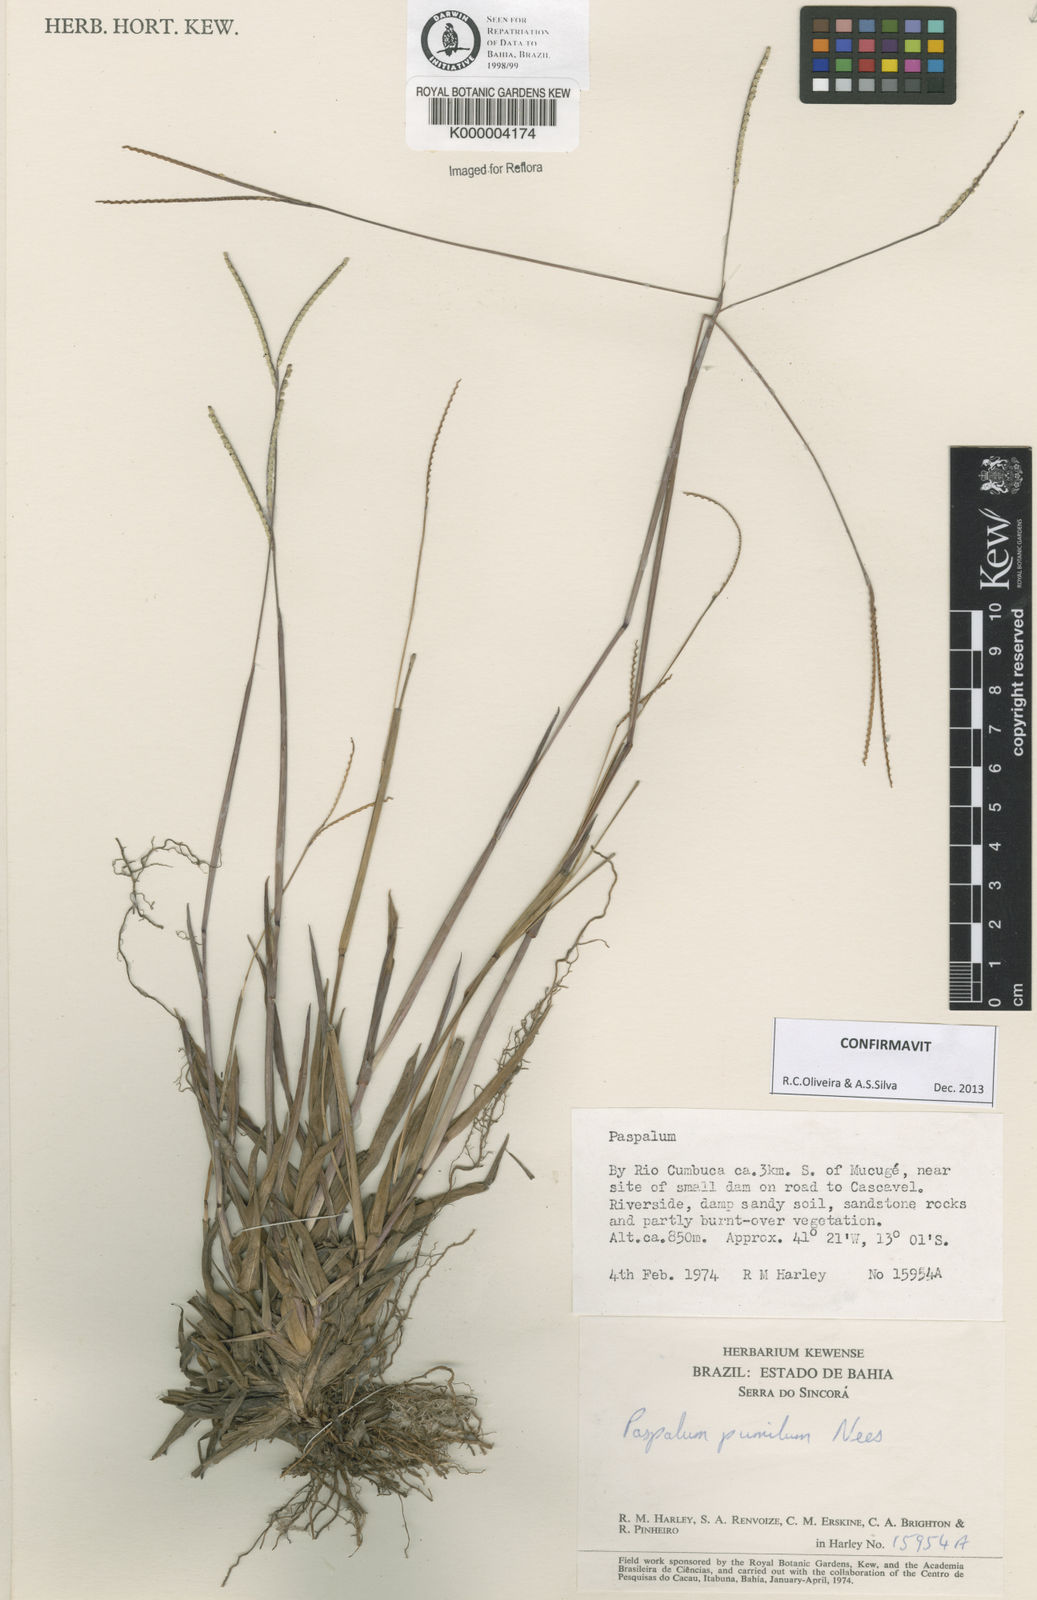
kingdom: Plantae
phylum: Tracheophyta
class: Liliopsida
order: Poales
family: Poaceae
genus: Paspalum
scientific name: Paspalum pumilum
